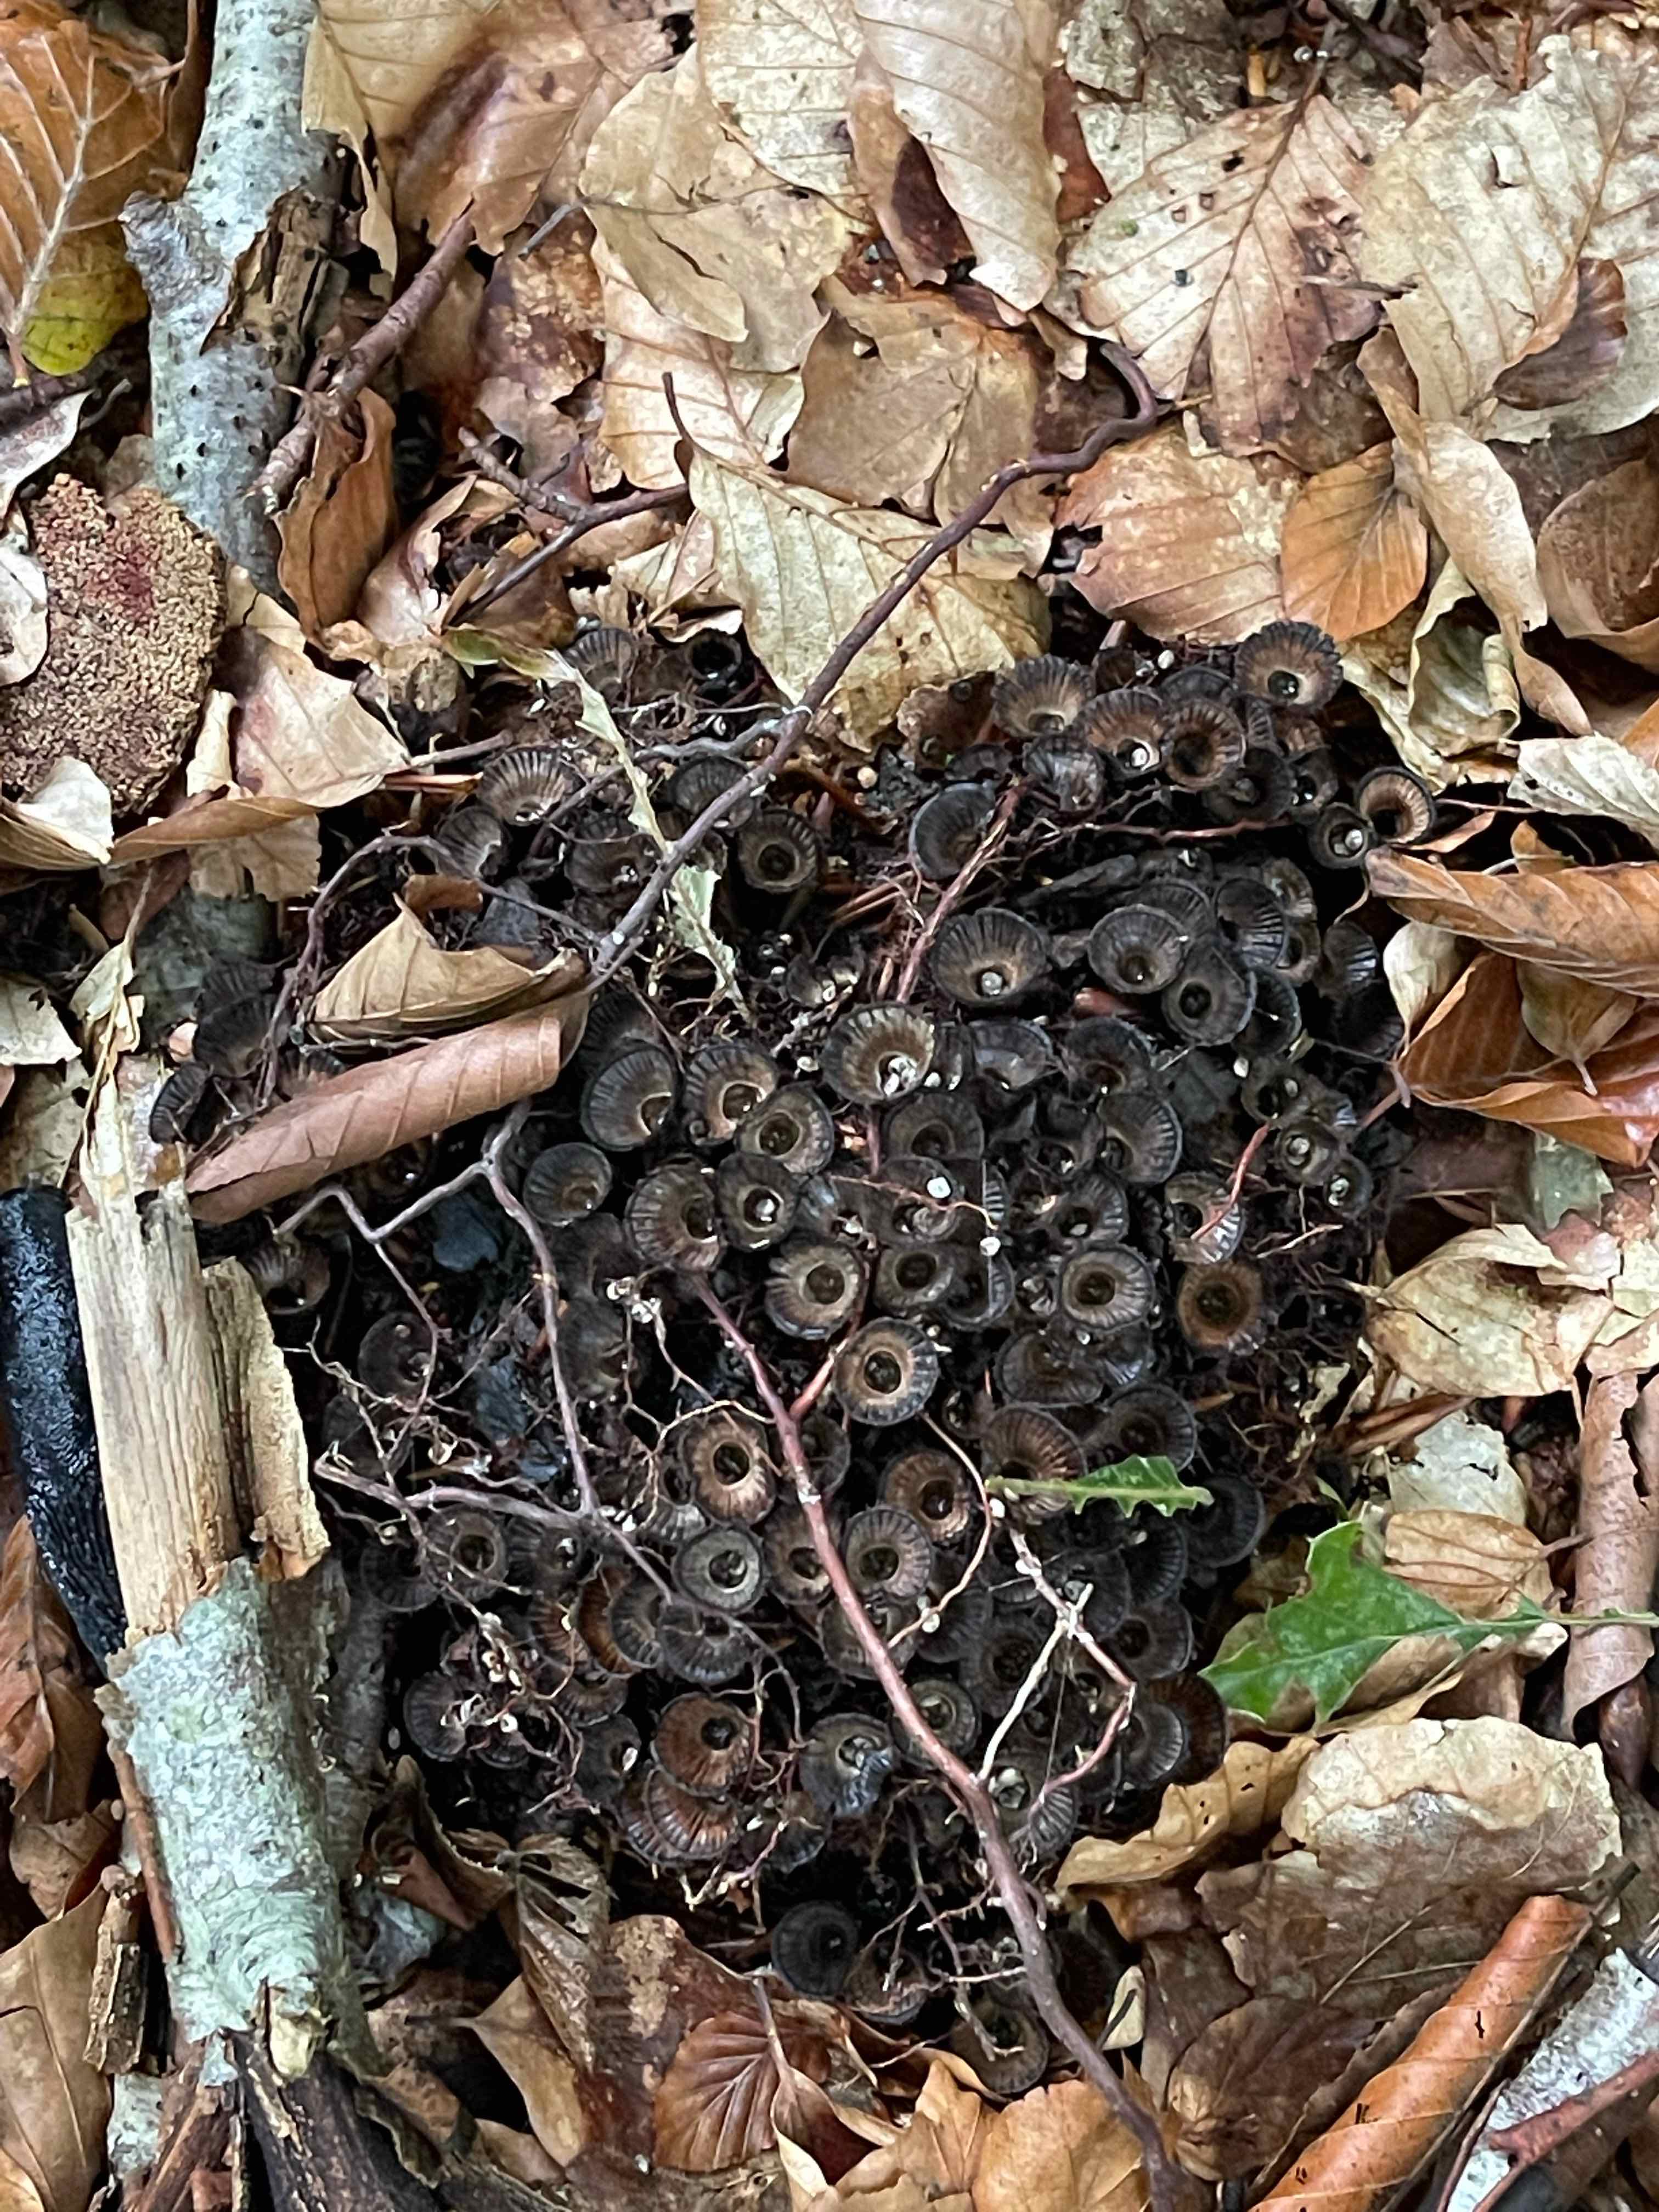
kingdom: Fungi
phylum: Basidiomycota
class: Agaricomycetes
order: Agaricales
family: Agaricaceae
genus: Cyathus
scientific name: Cyathus striatus
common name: stribet redesvamp
